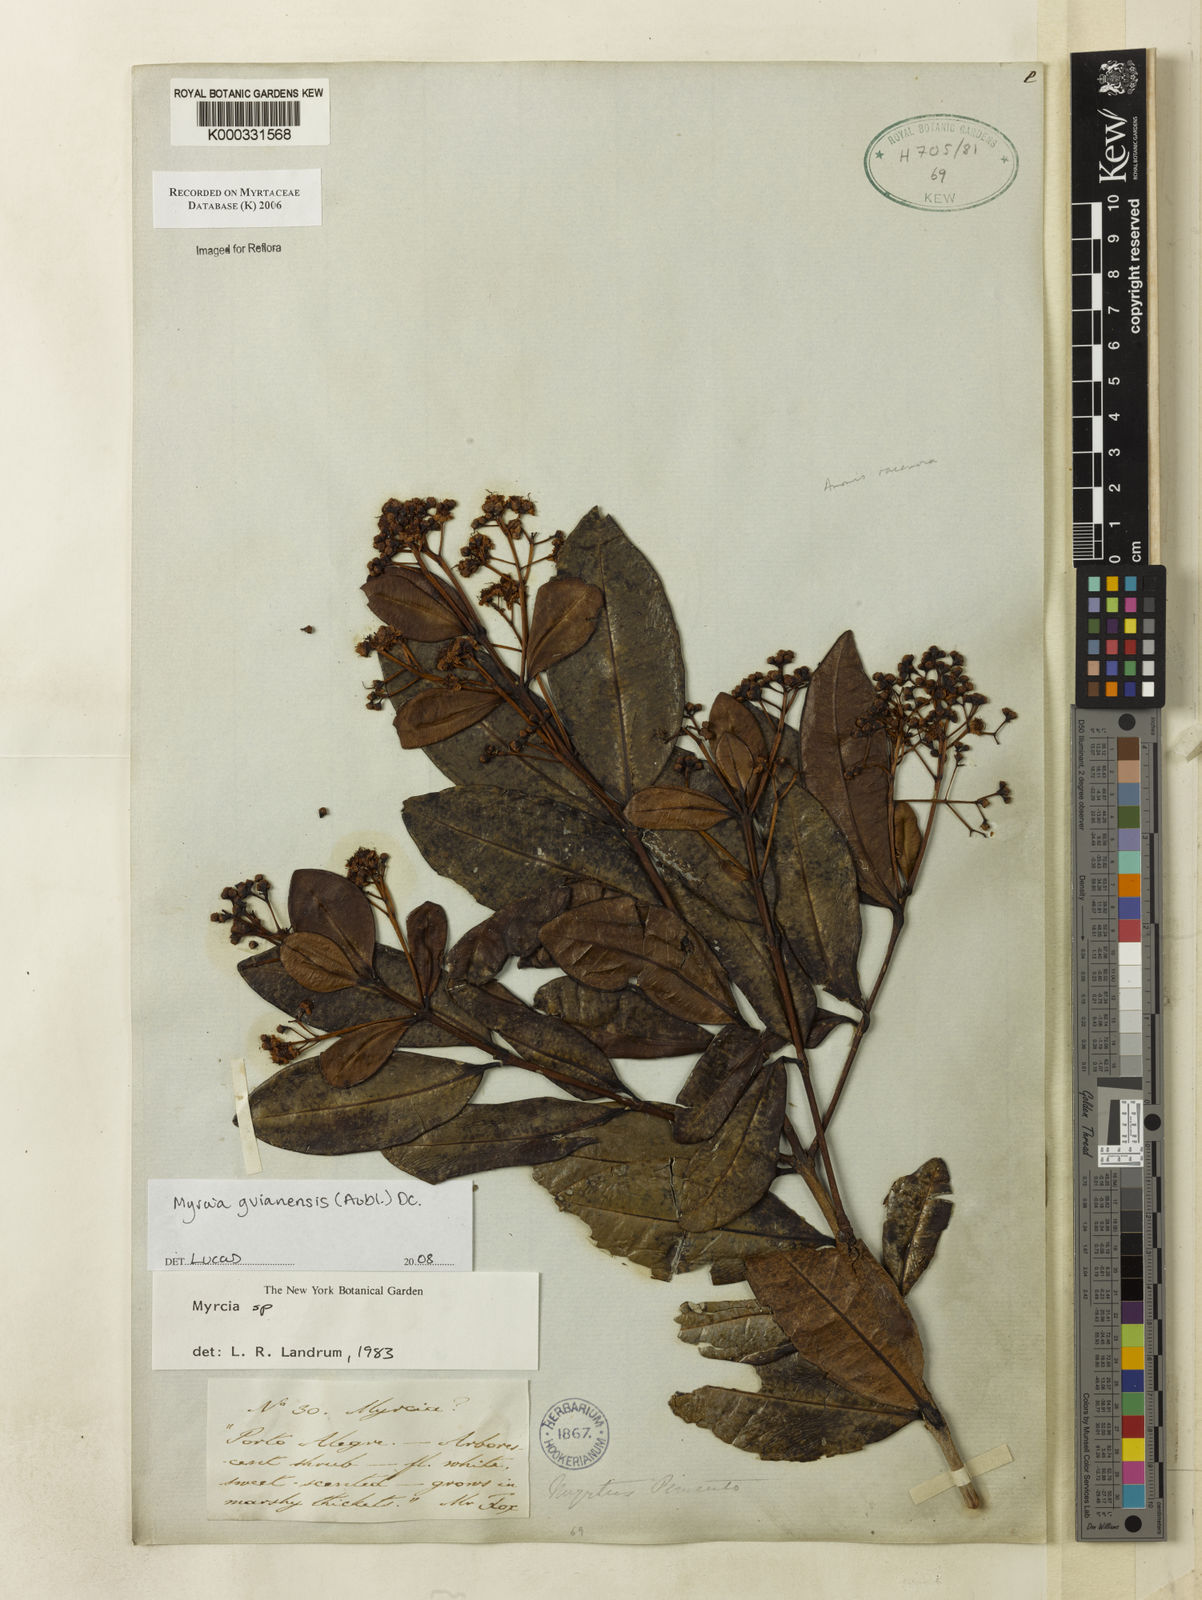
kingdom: Plantae
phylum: Tracheophyta
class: Magnoliopsida
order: Myrtales
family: Myrtaceae
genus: Myrcia
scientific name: Myrcia
